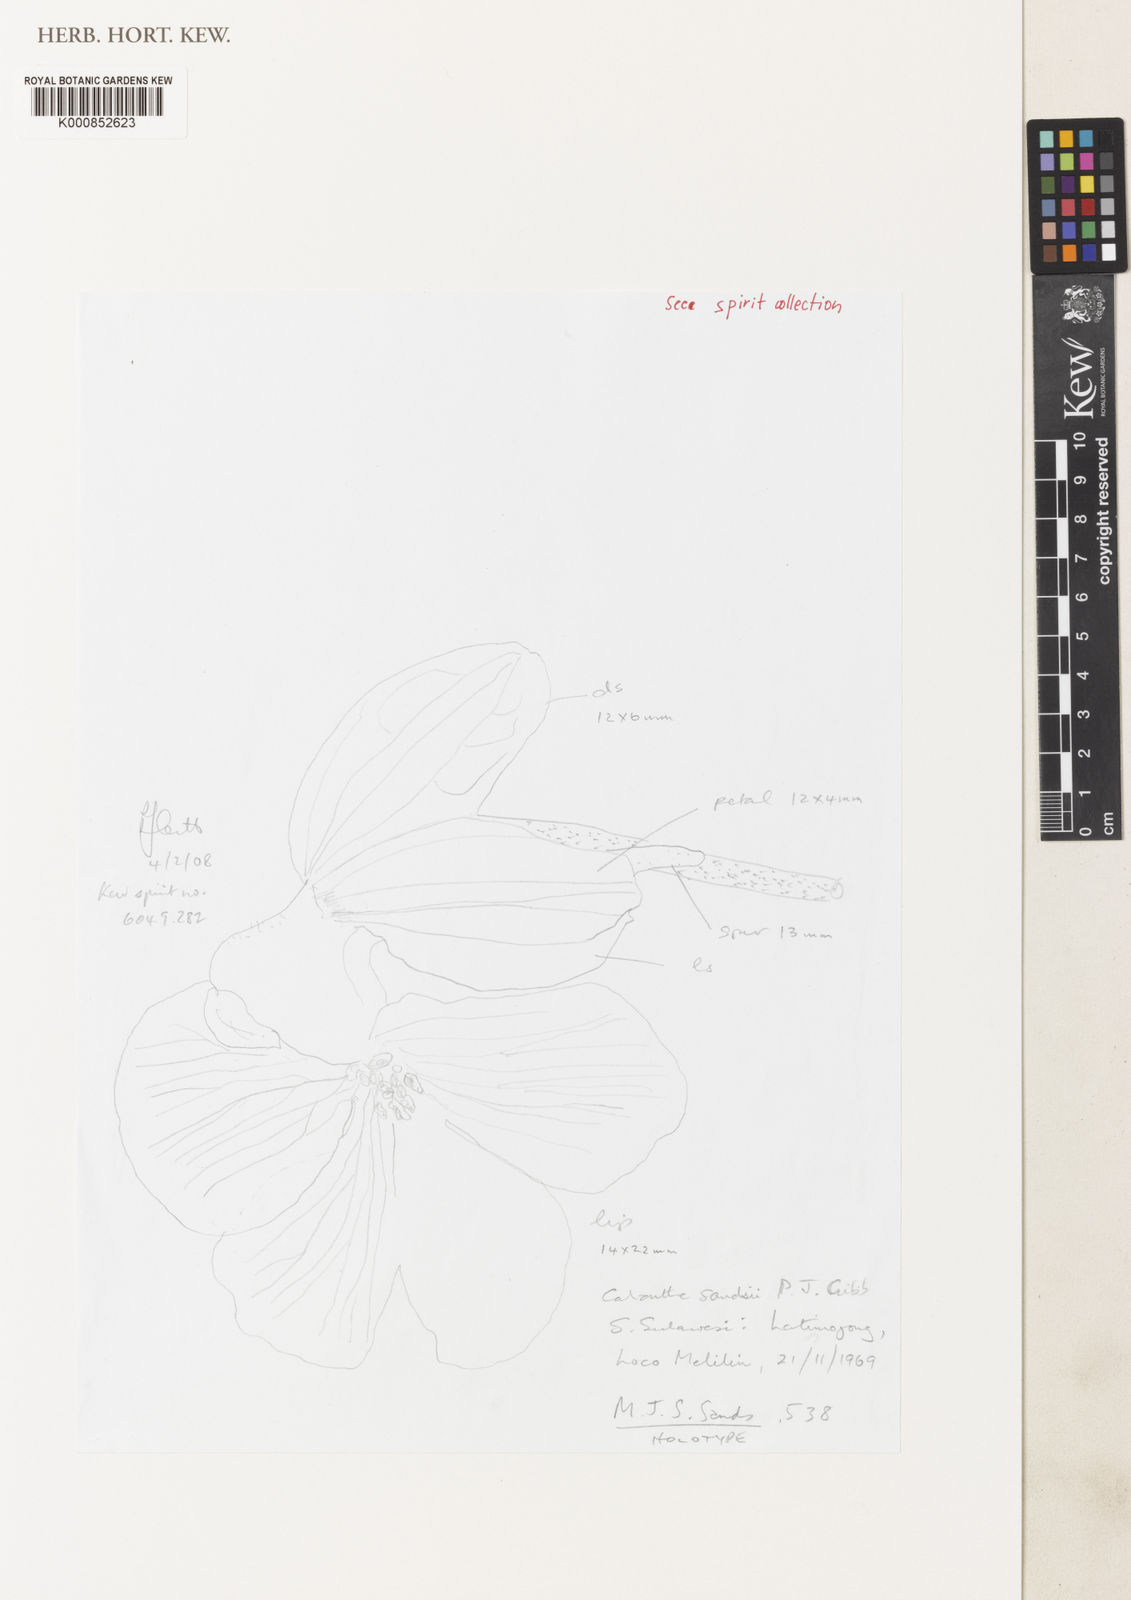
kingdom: Plantae
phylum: Tracheophyta
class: Liliopsida
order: Asparagales
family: Orchidaceae
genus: Calanthe
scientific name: Calanthe sandsii
